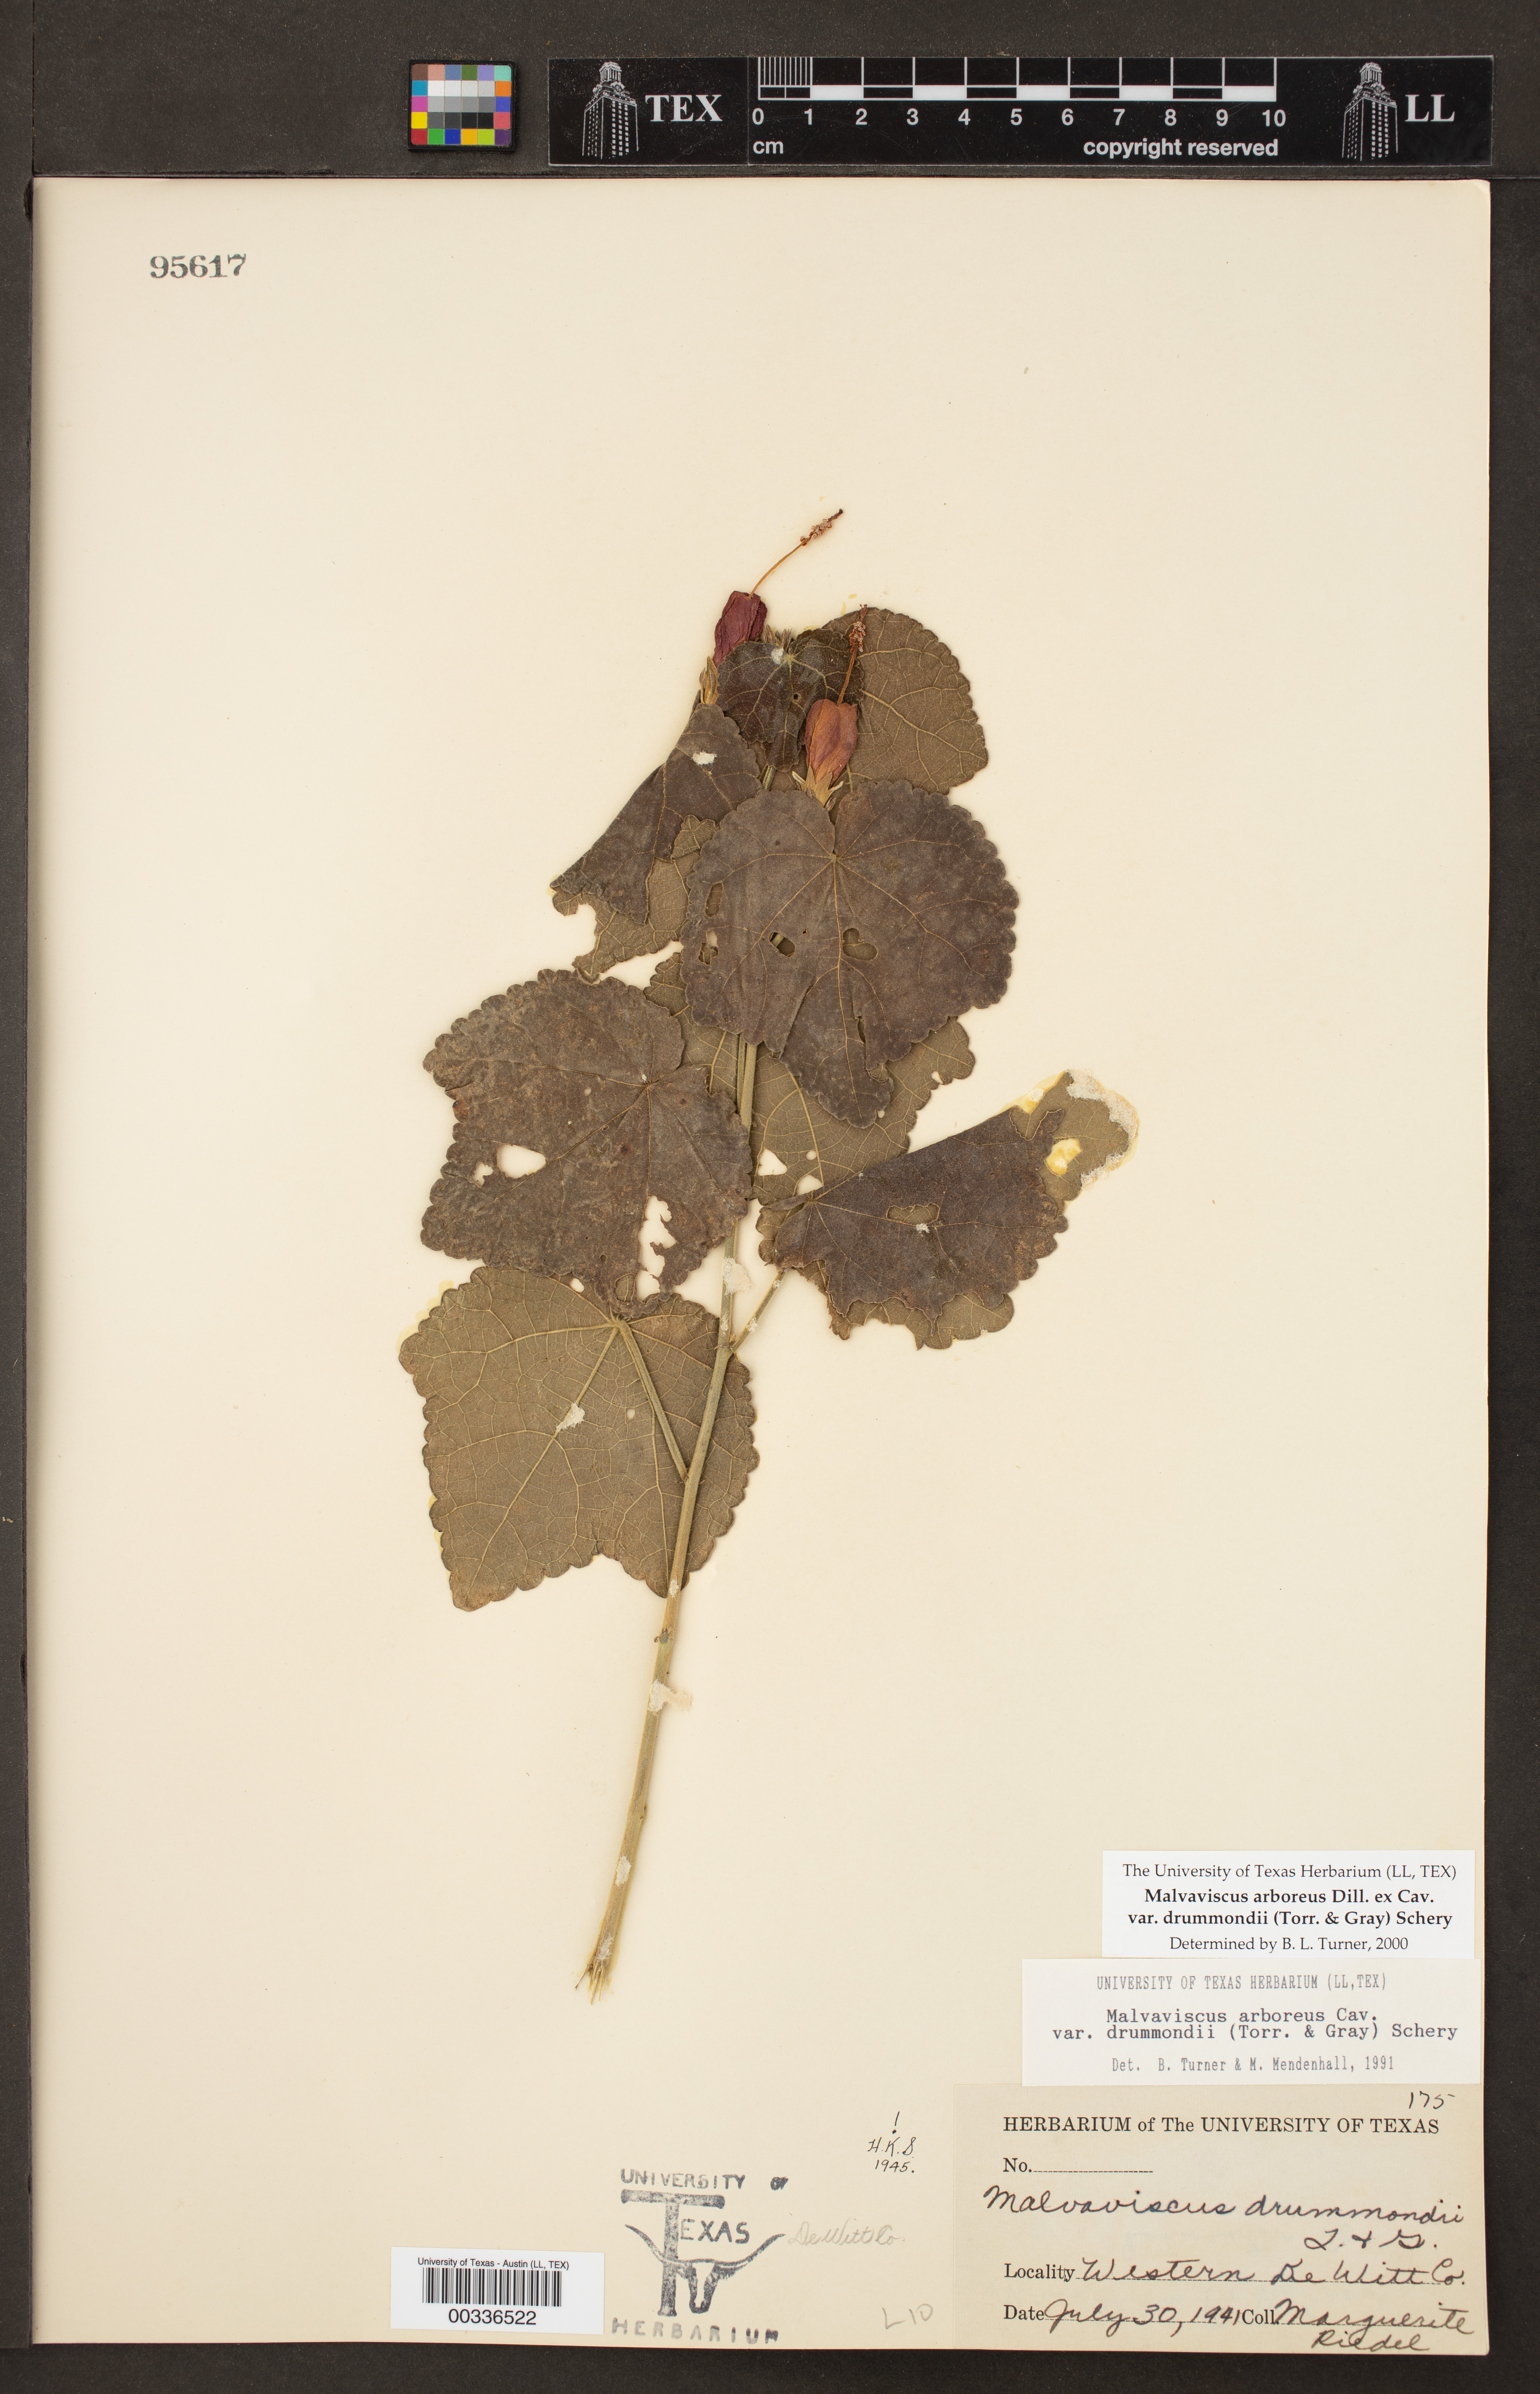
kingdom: Plantae
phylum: Tracheophyta
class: Magnoliopsida
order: Malvales
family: Malvaceae
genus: Malvaviscus
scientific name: Malvaviscus arboreus
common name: Wax mallow
